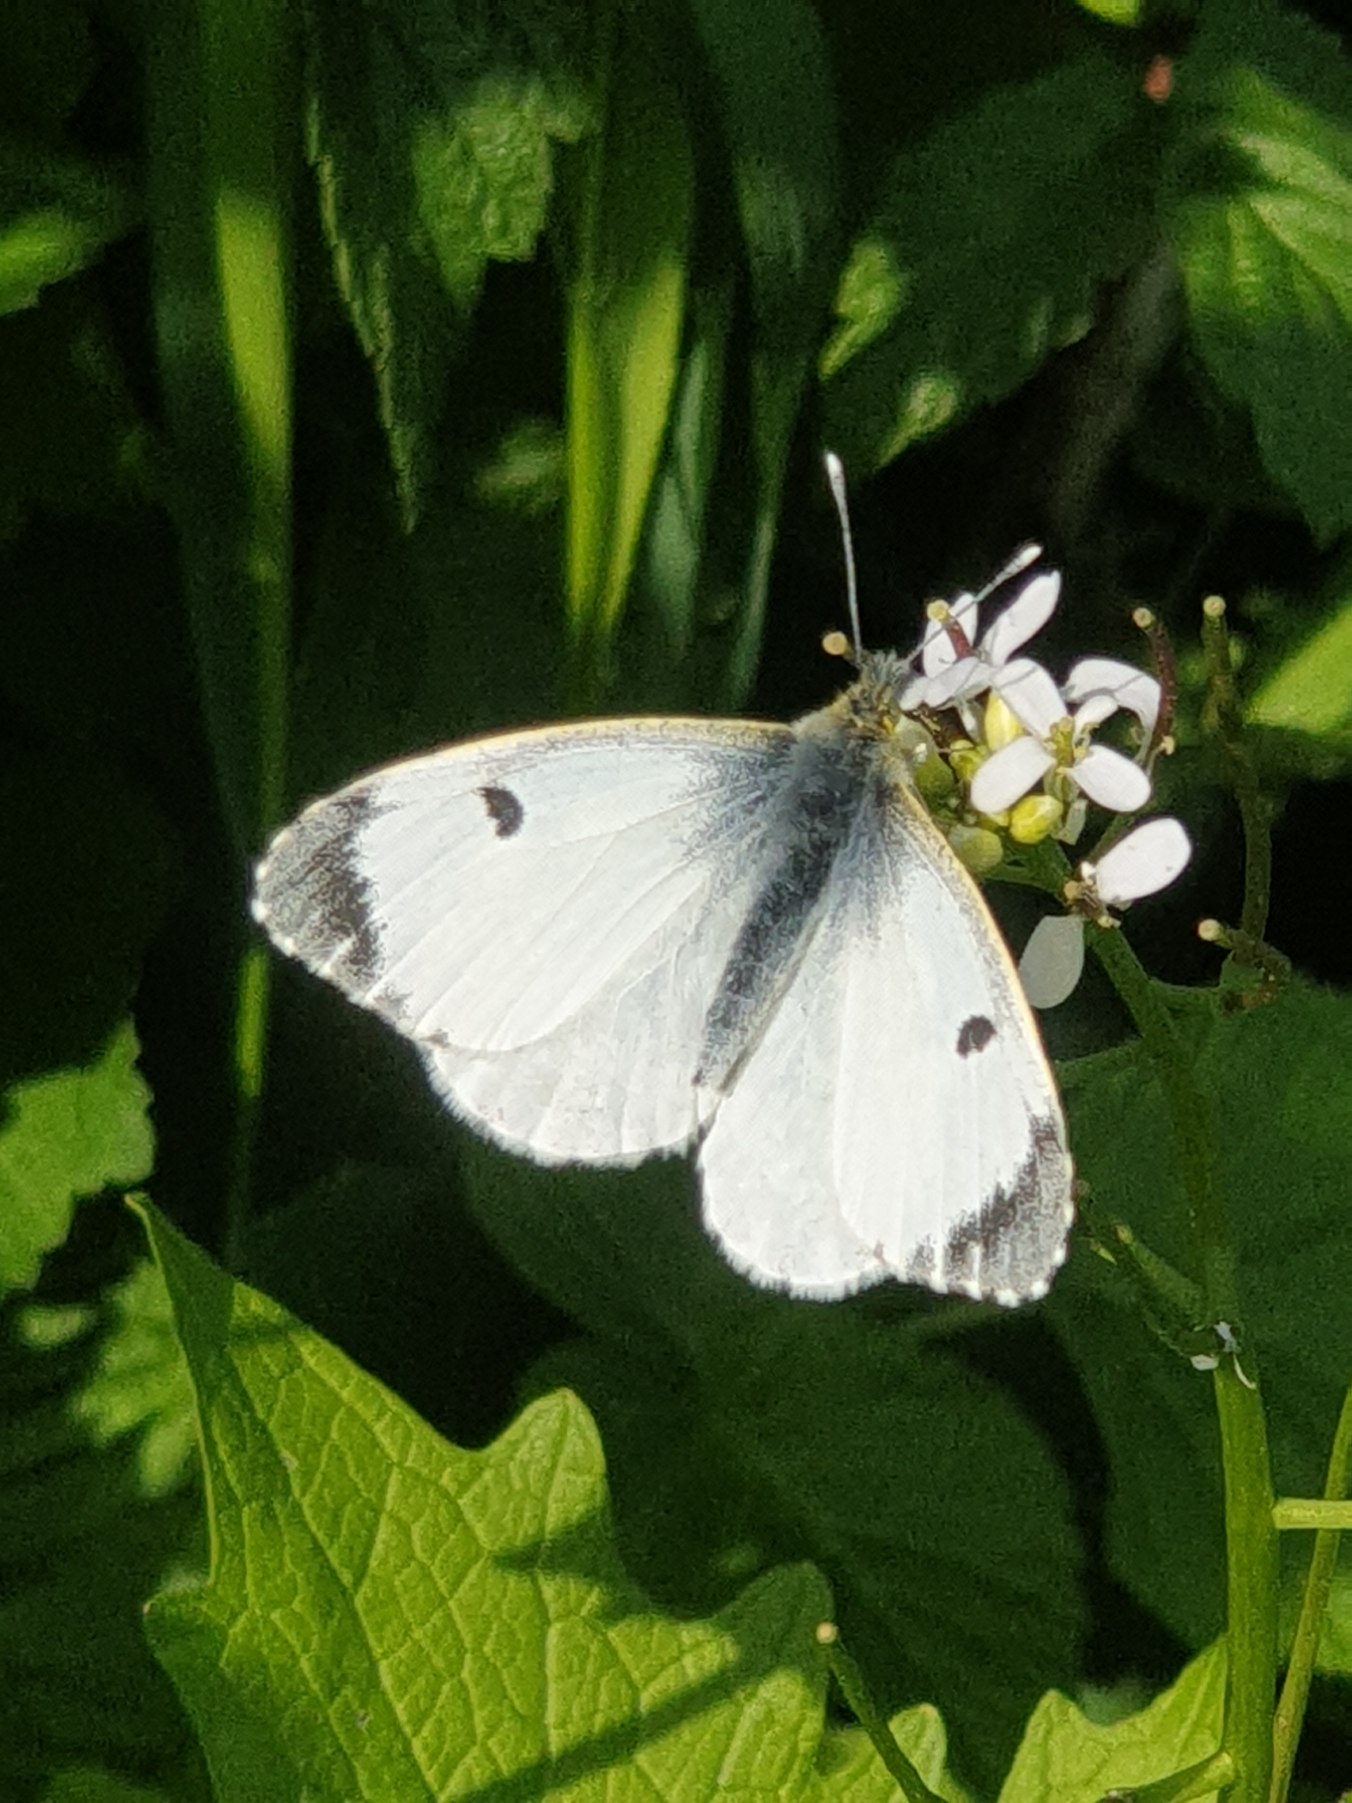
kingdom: Animalia
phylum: Arthropoda
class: Insecta
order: Lepidoptera
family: Pieridae
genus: Anthocharis
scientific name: Anthocharis cardamines
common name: Aurora
